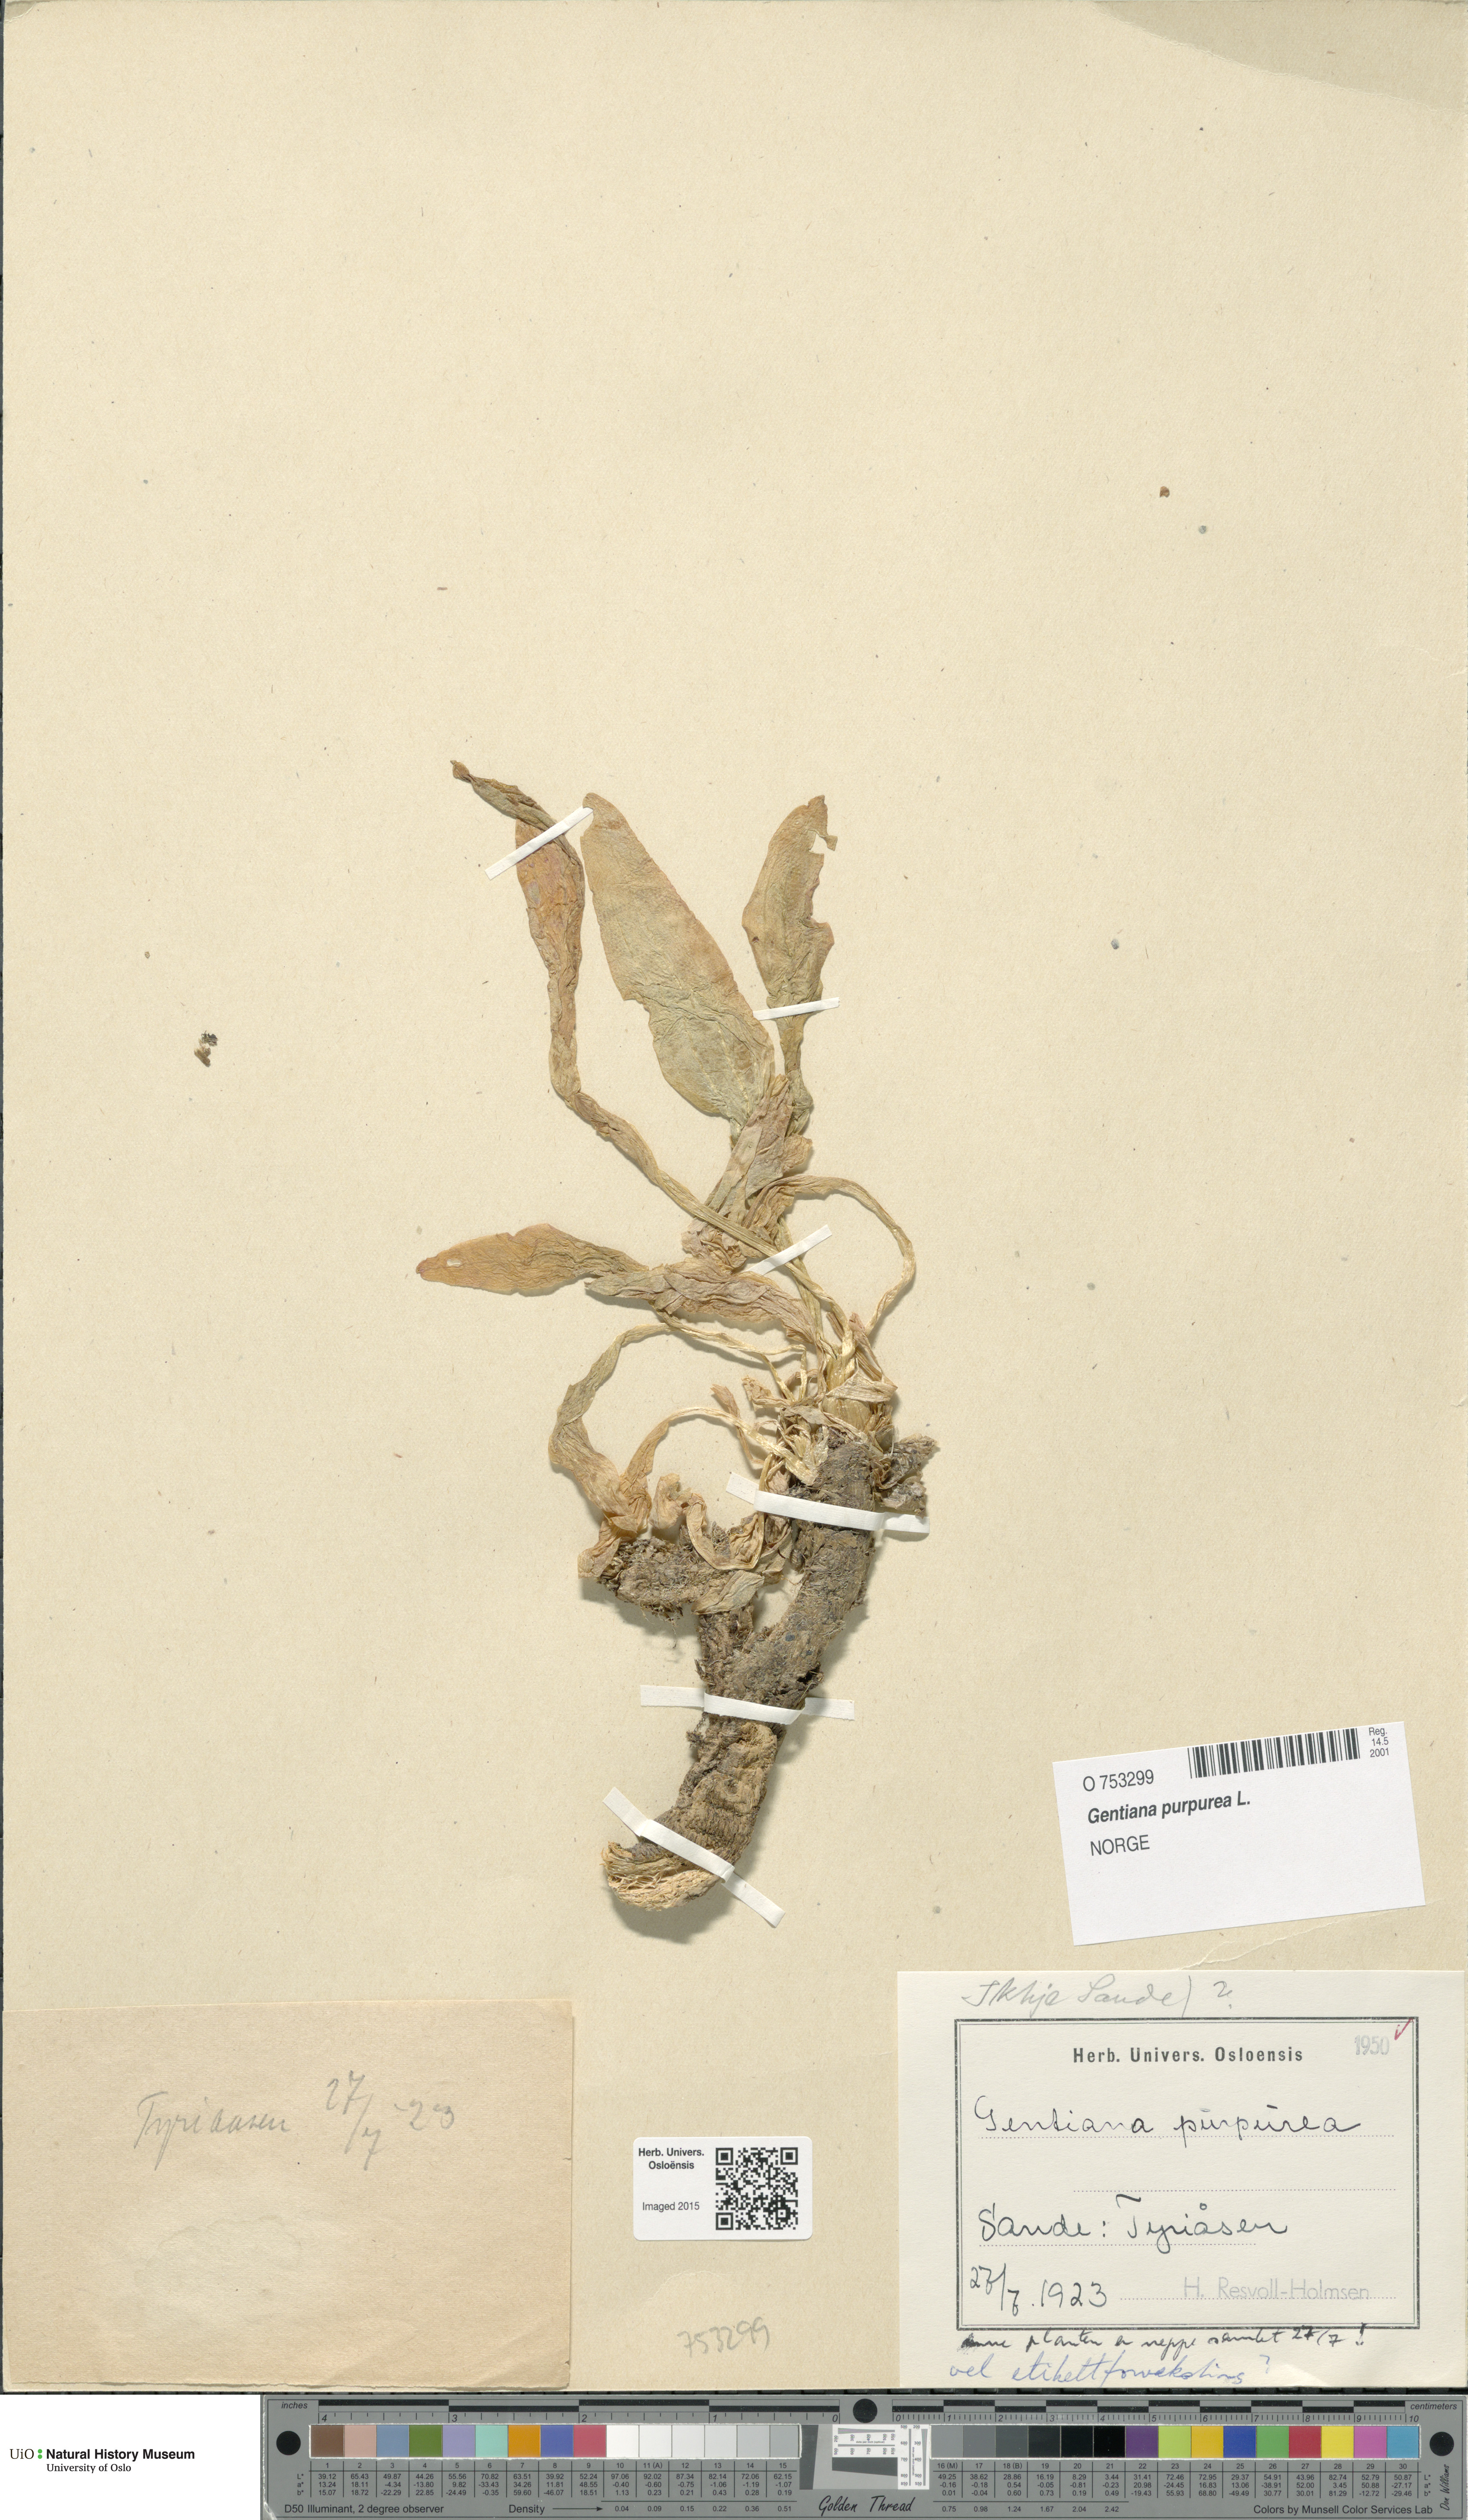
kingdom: Plantae
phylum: Tracheophyta
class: Magnoliopsida
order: Gentianales
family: Gentianaceae
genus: Gentiana
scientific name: Gentiana purpurea
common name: Purple gentian
